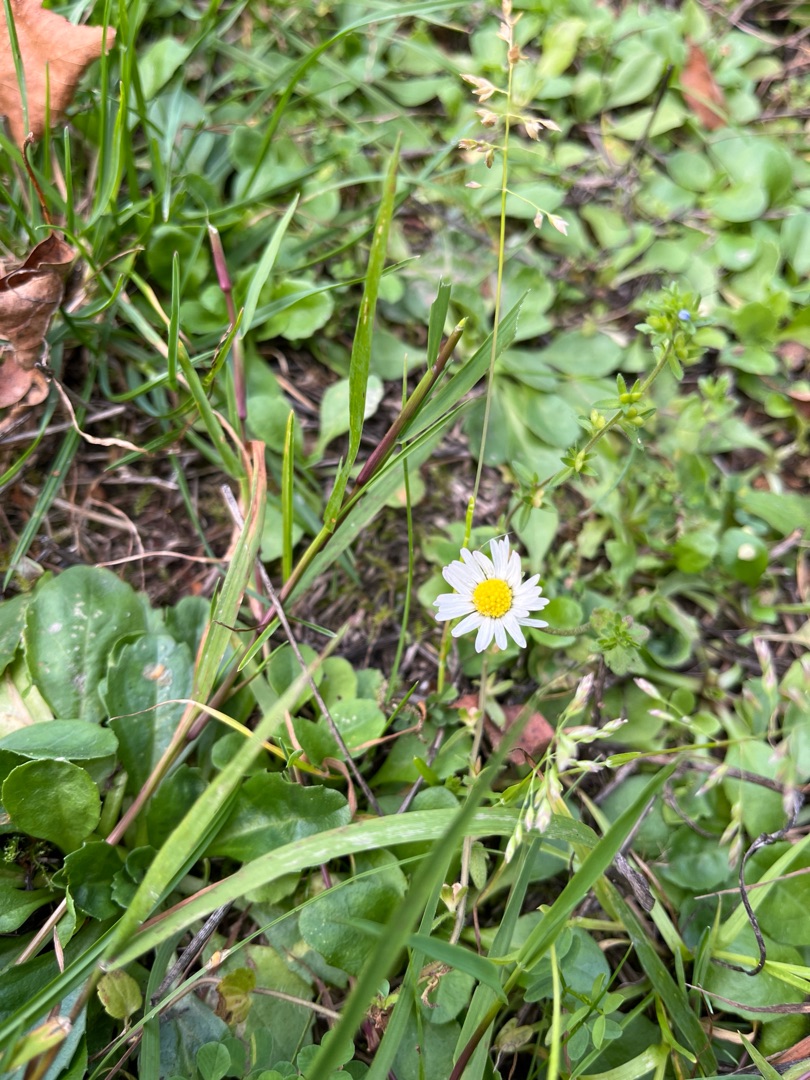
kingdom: Plantae
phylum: Tracheophyta
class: Magnoliopsida
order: Asterales
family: Asteraceae
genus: Bellis
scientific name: Bellis perennis
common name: Tusindfryd
